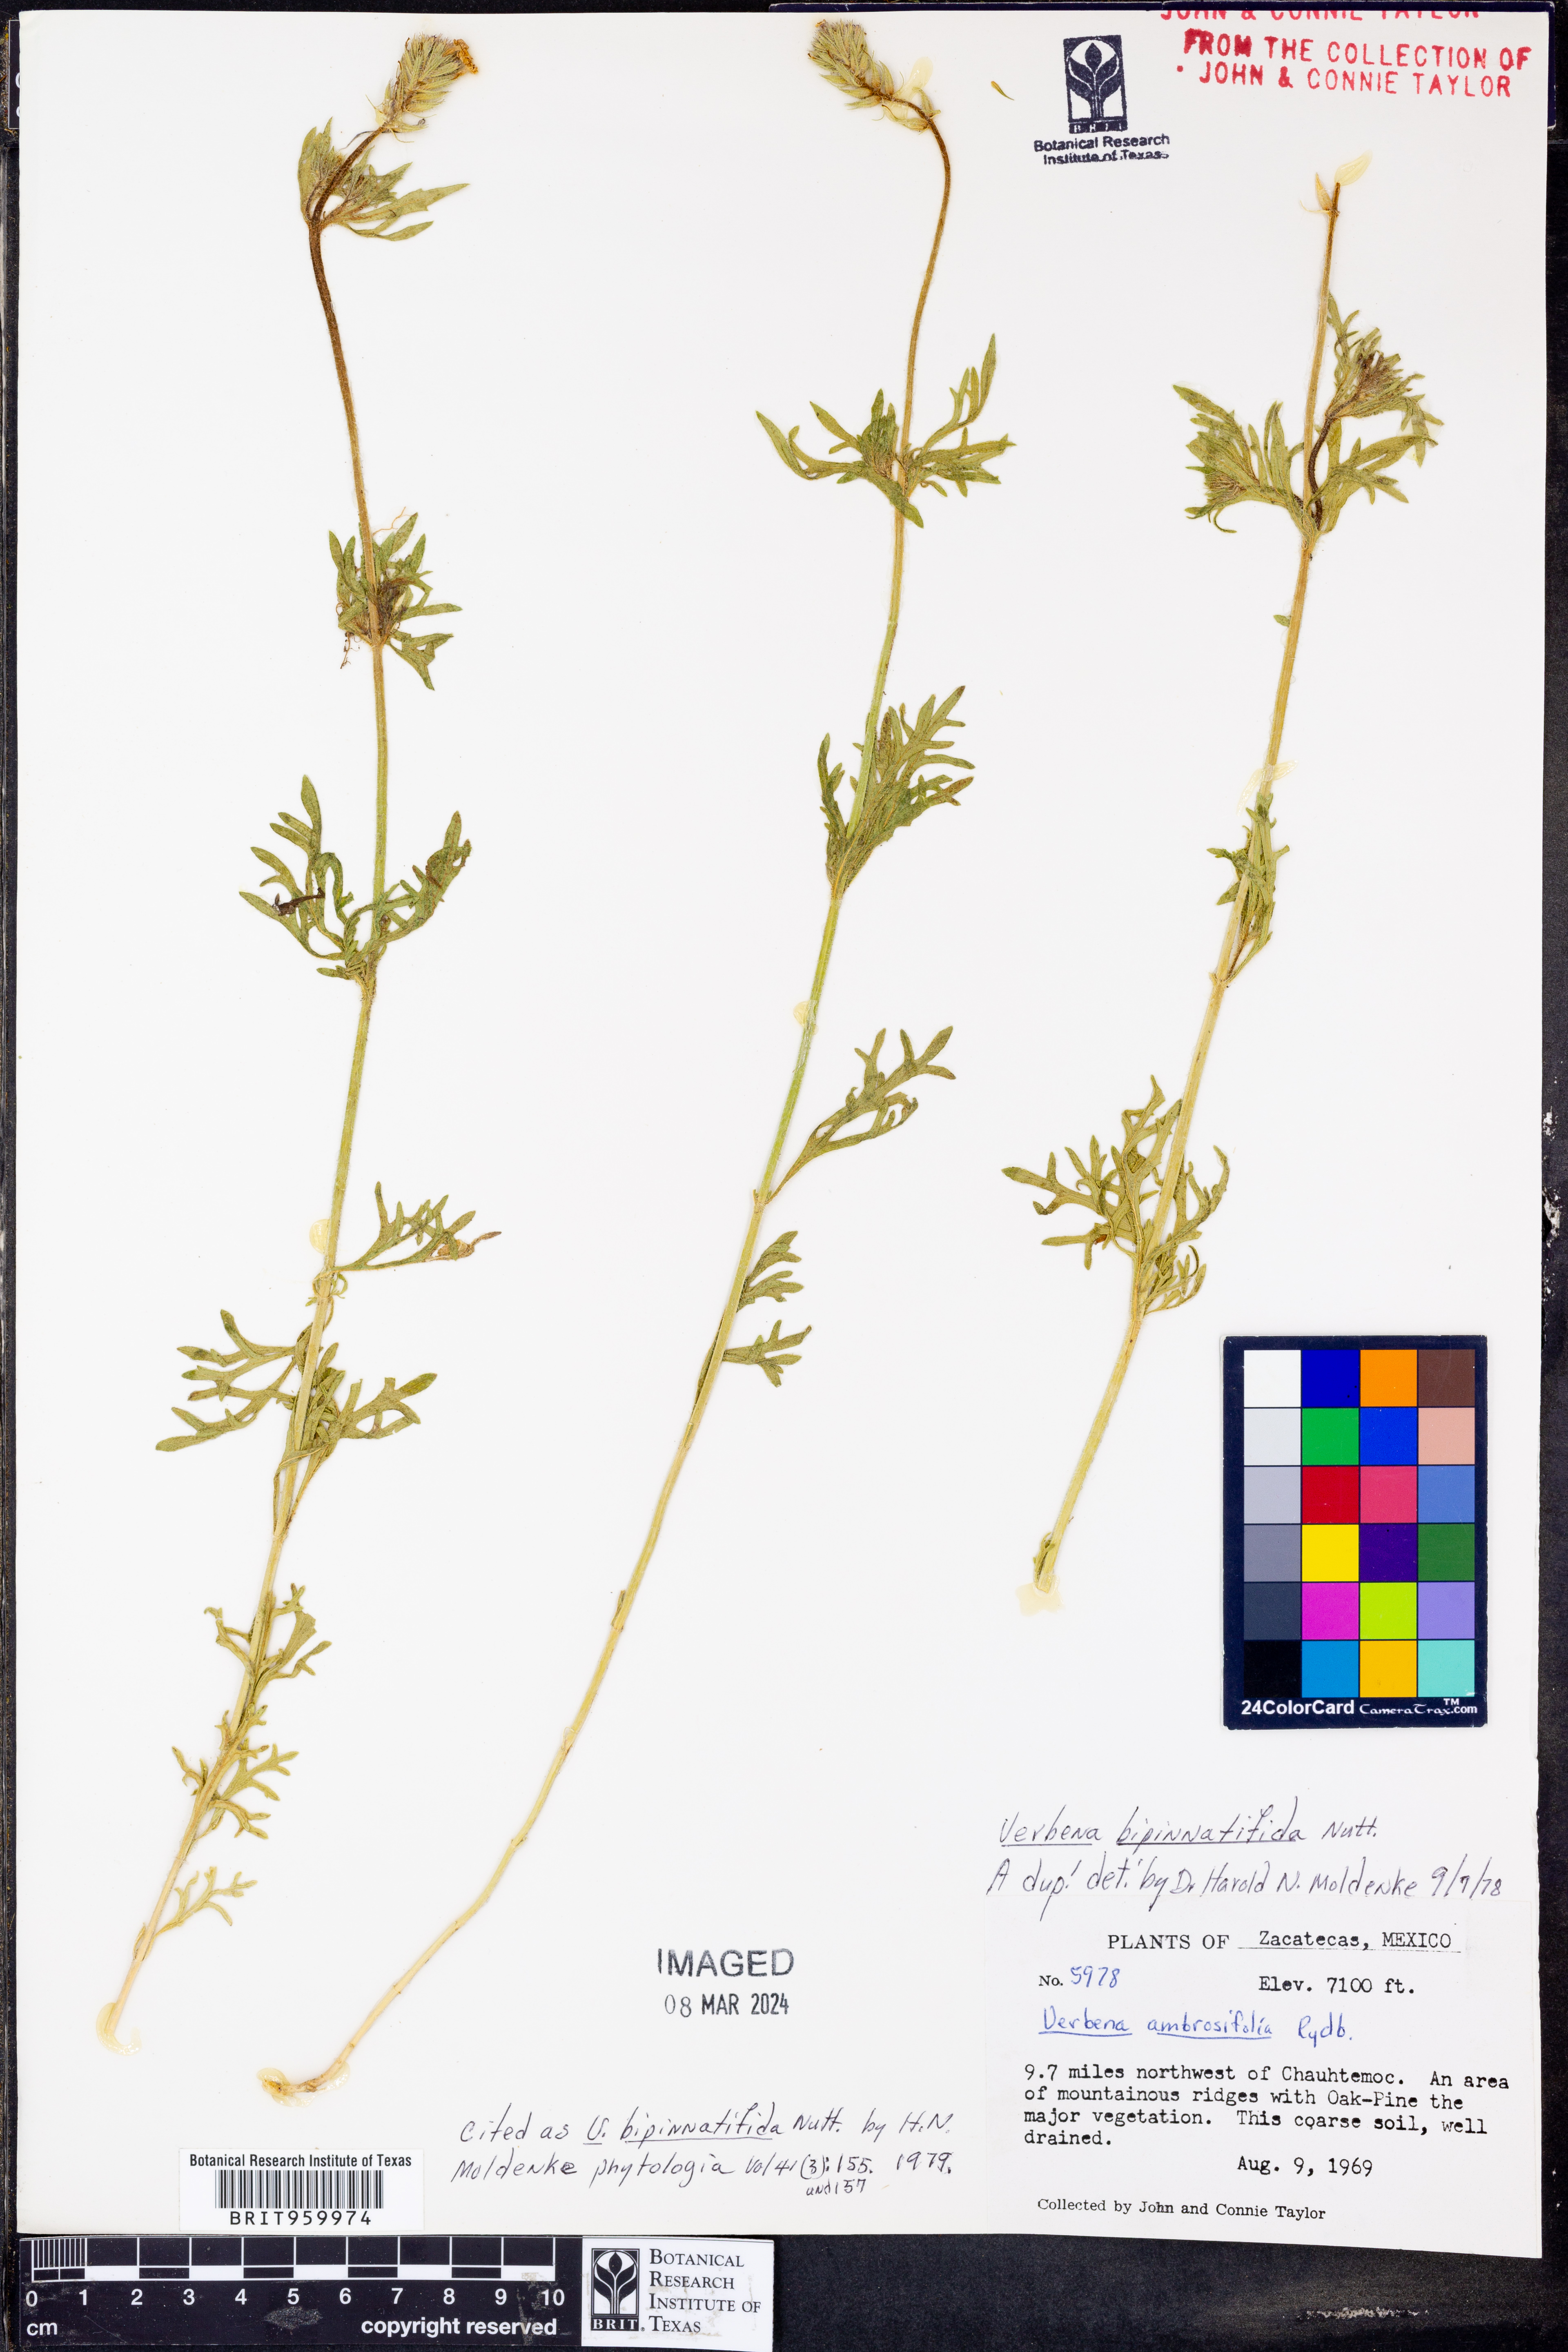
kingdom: Plantae
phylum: Tracheophyta
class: Magnoliopsida
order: Lamiales
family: Verbenaceae
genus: Verbena
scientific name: Verbena
